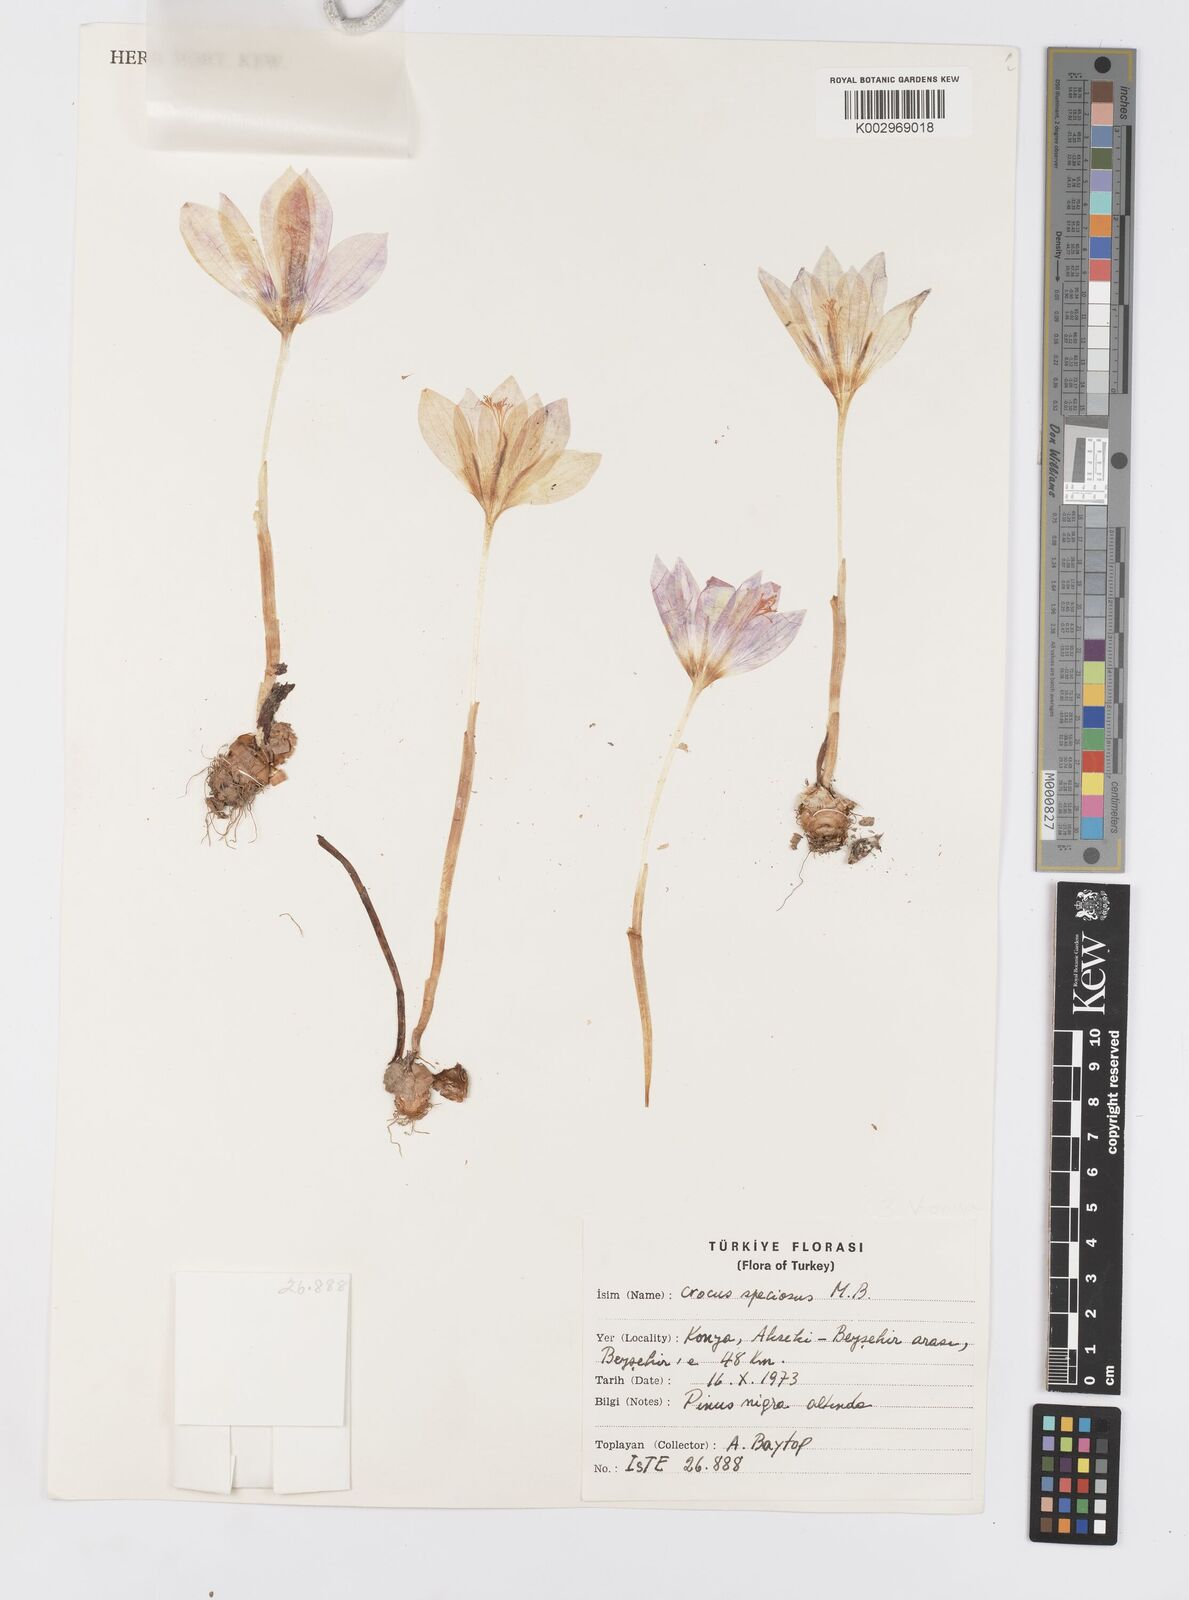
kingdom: Plantae
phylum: Tracheophyta
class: Liliopsida
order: Asparagales
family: Iridaceae
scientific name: Iridaceae
